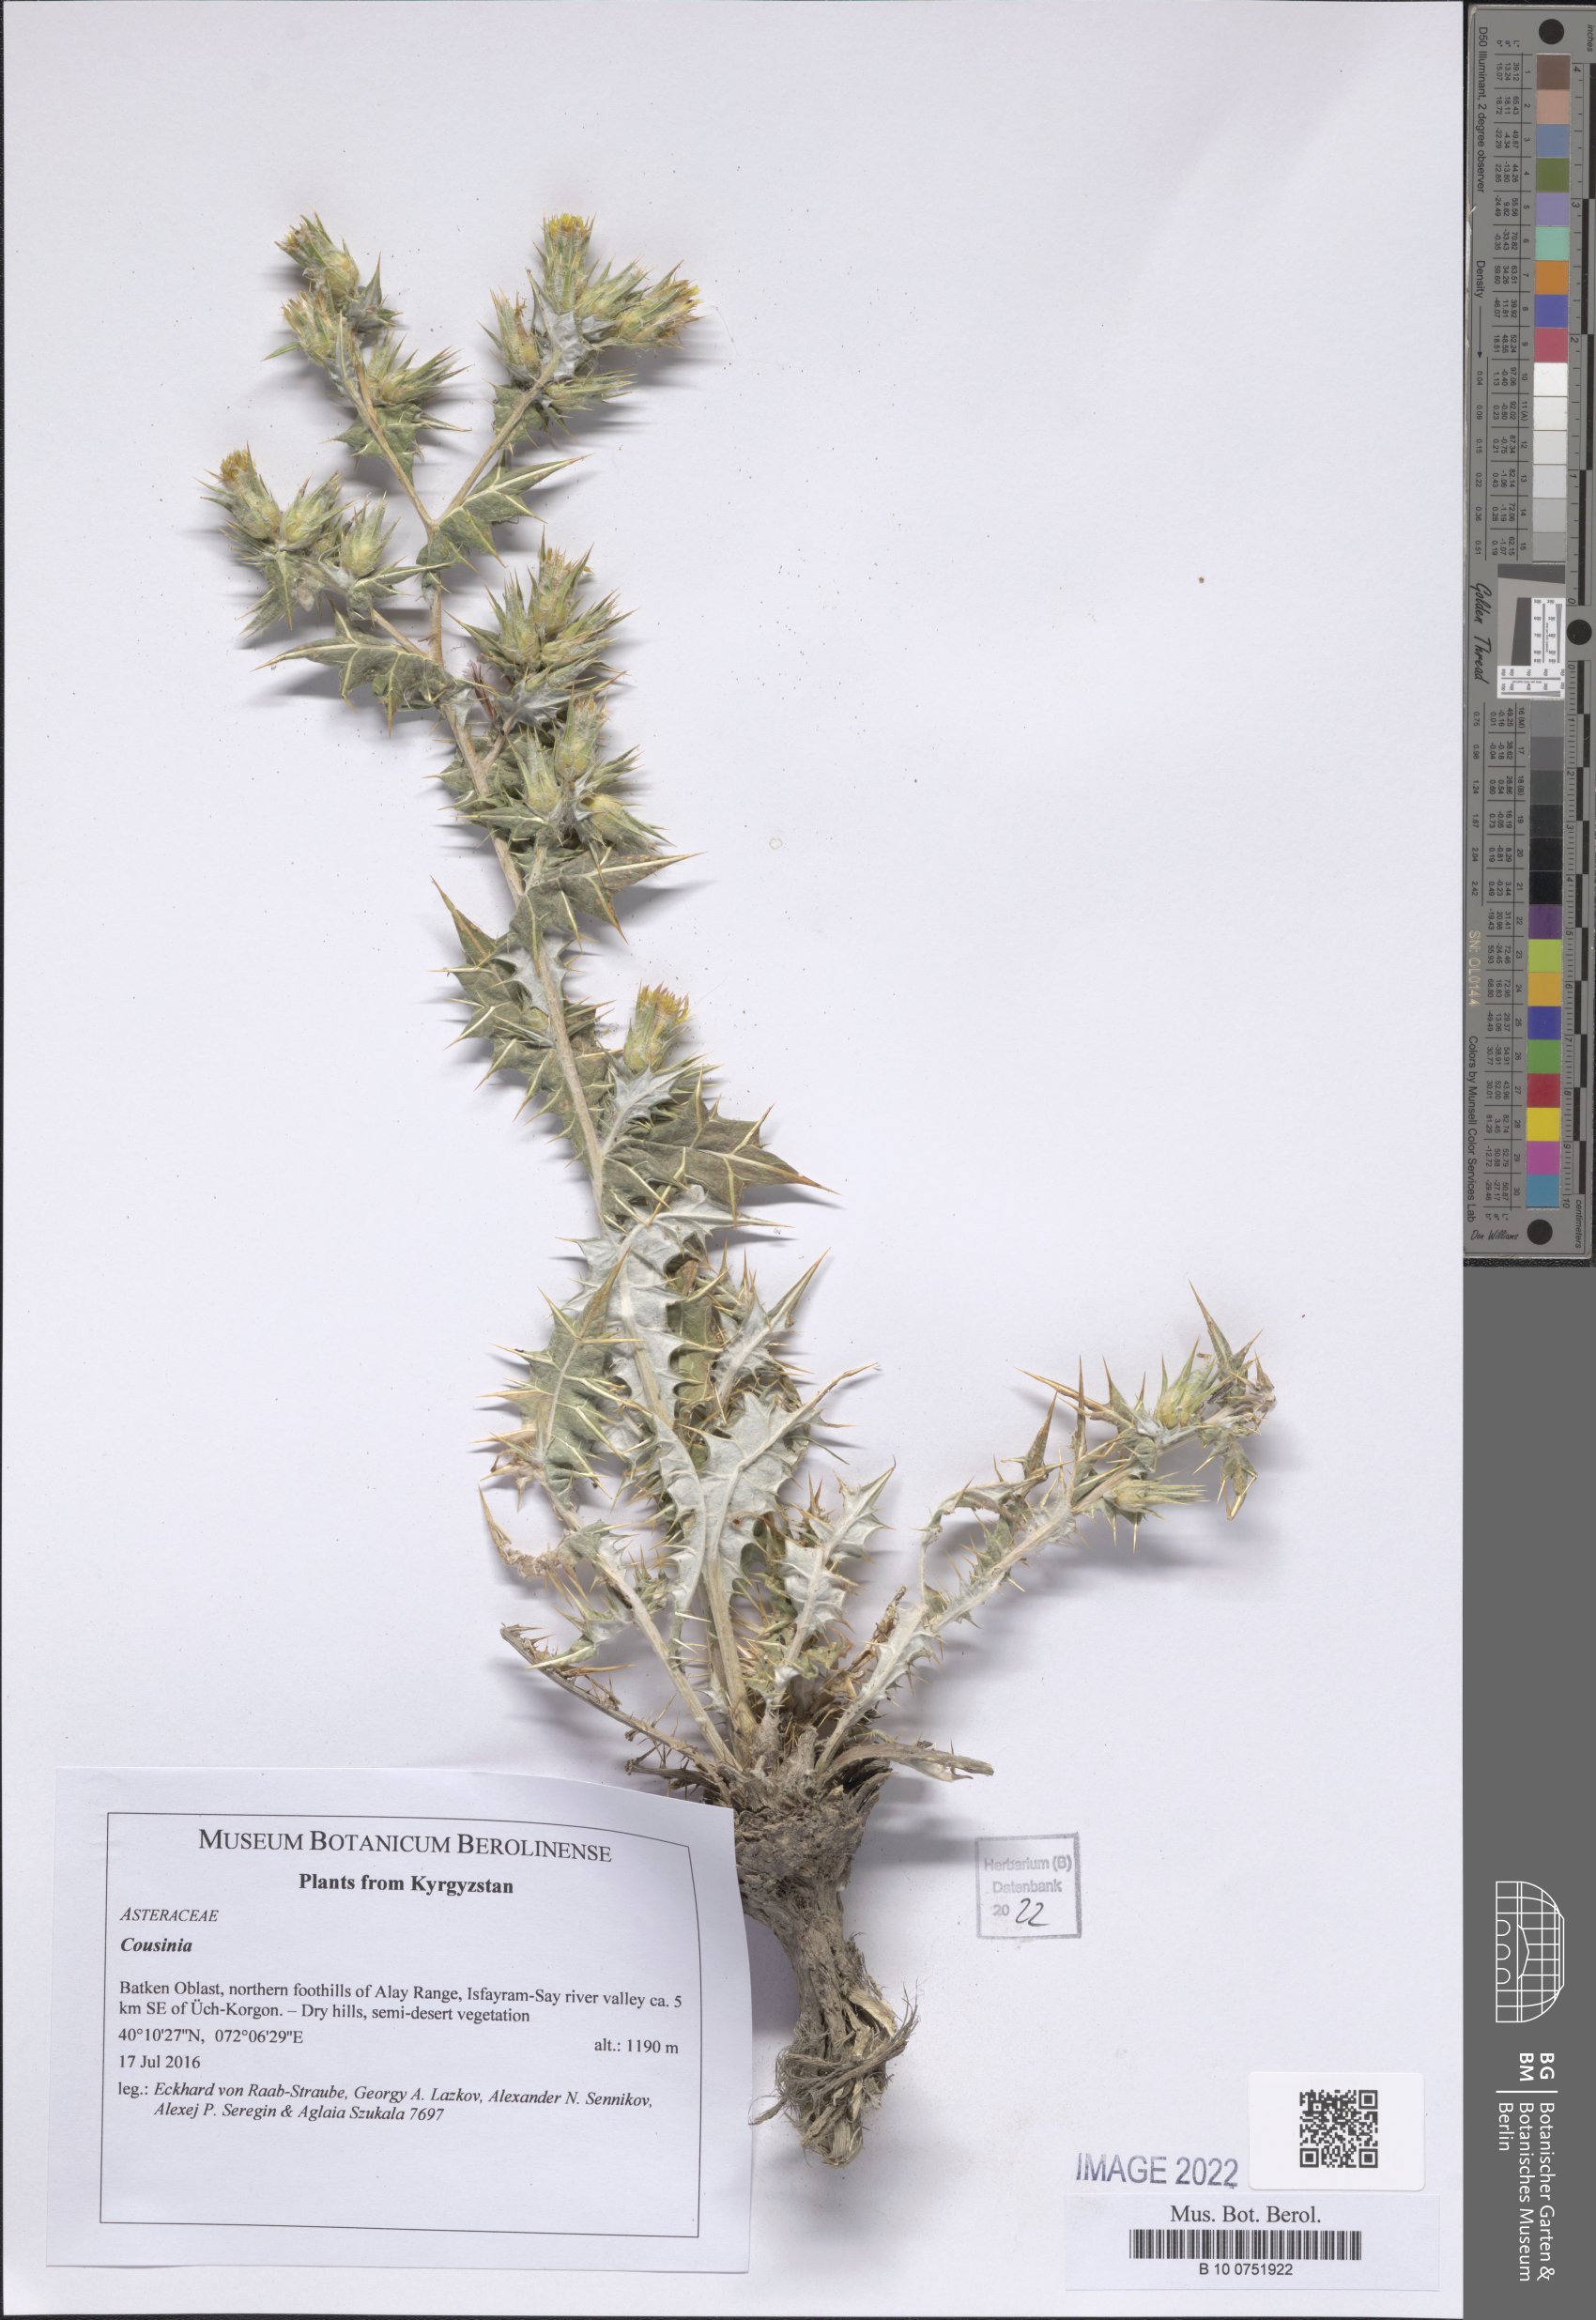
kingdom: Plantae
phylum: Tracheophyta
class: Magnoliopsida
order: Asterales
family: Asteraceae
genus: Cousinia
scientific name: Cousinia
